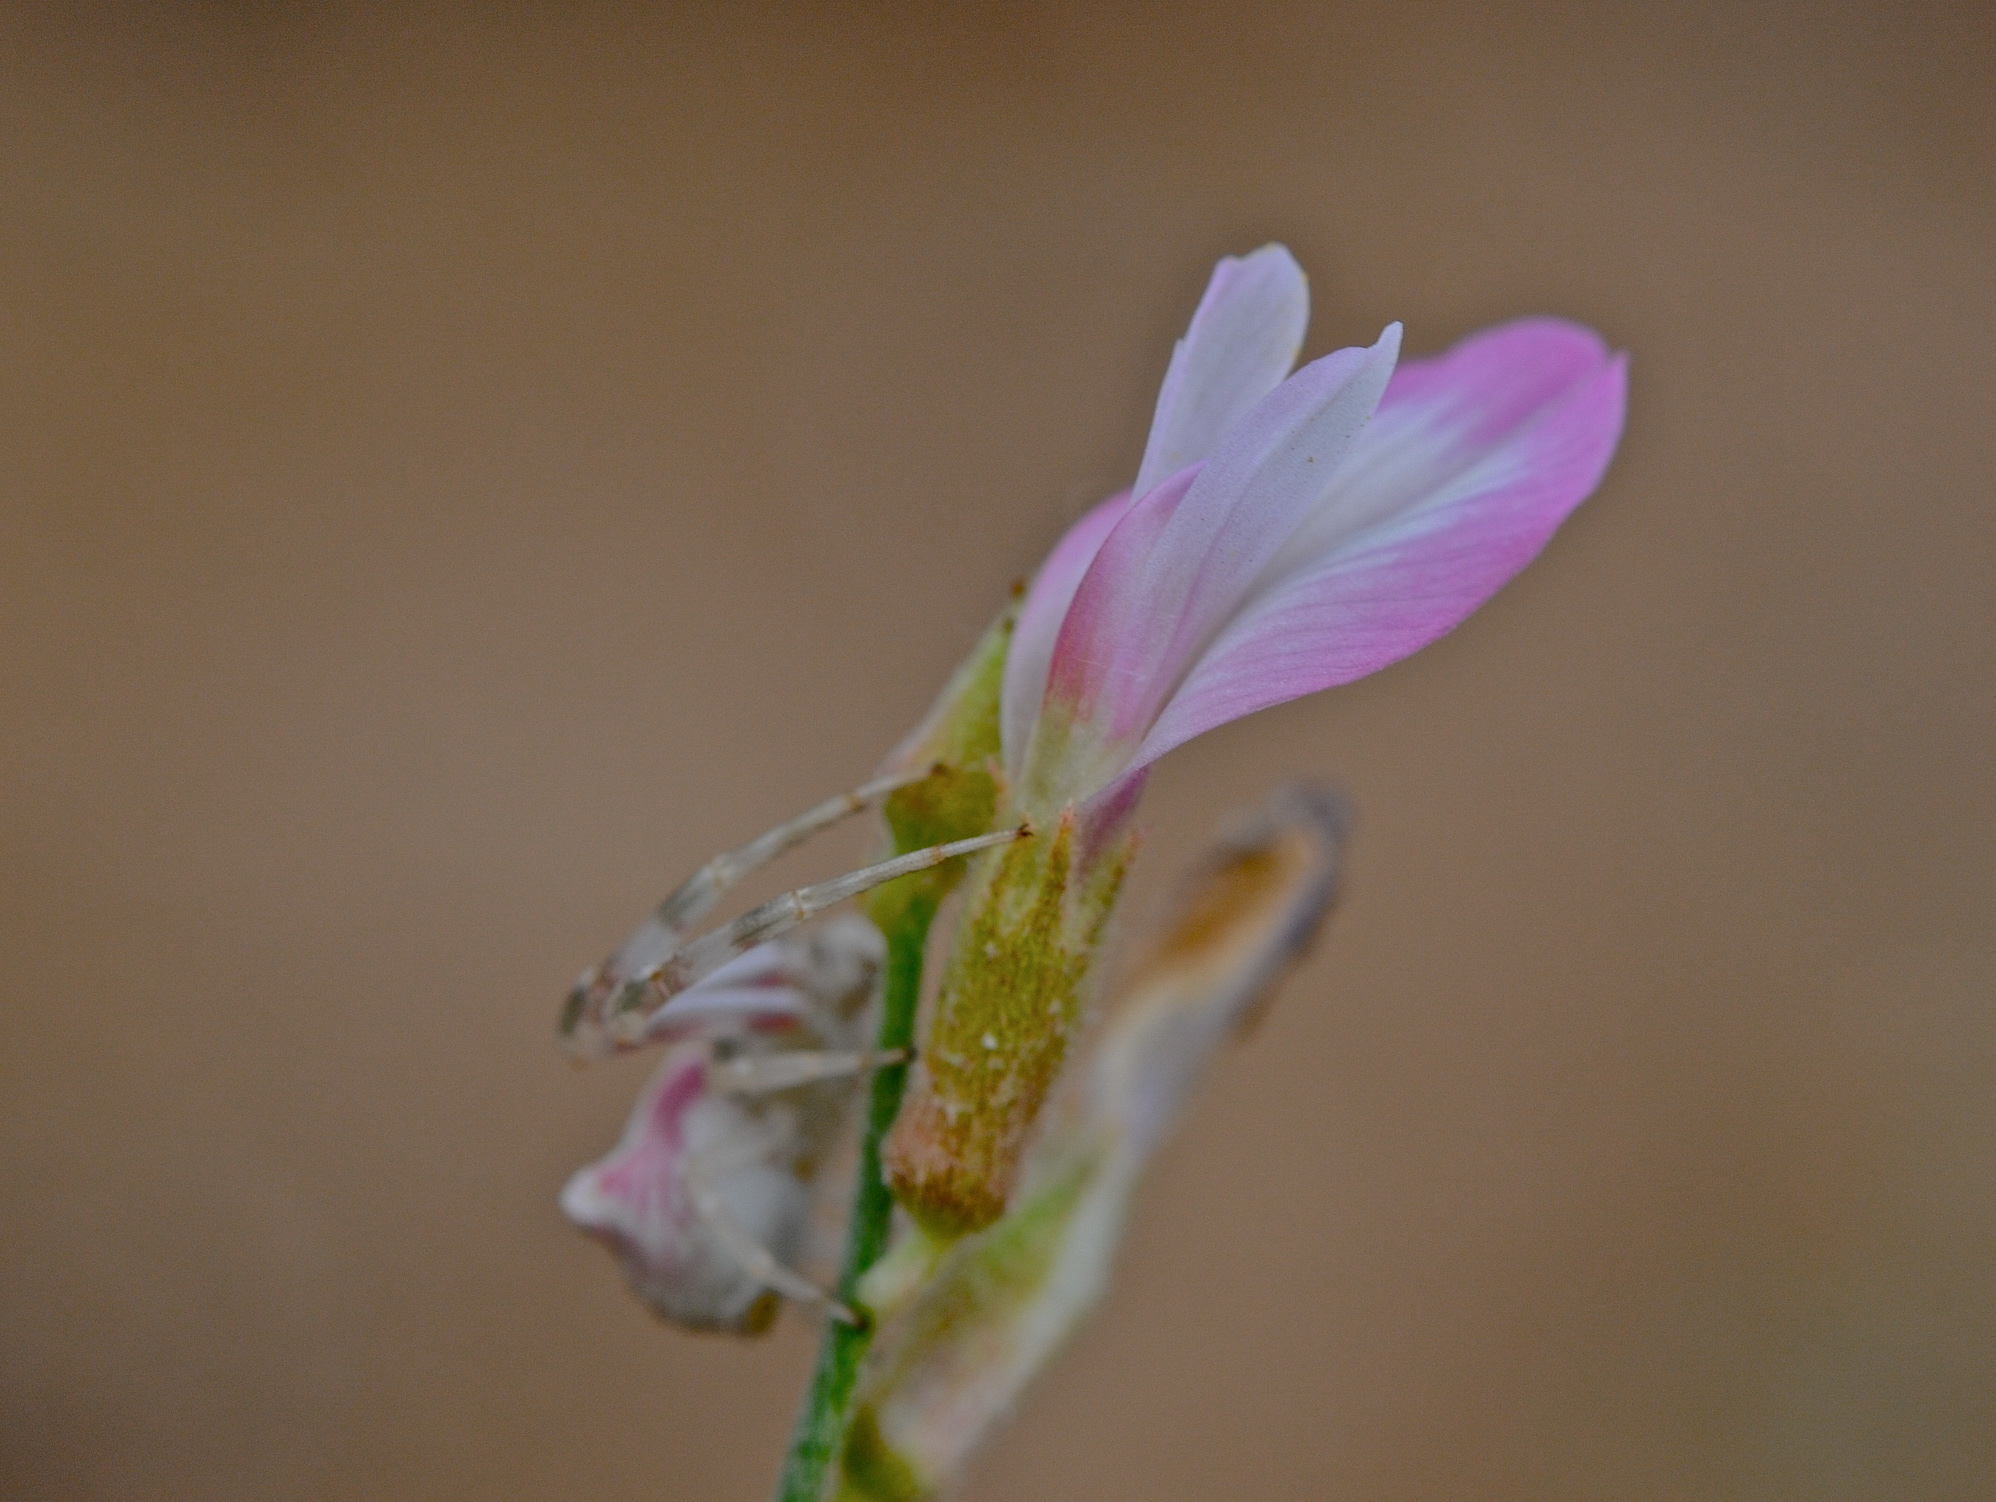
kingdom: Plantae
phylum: Tracheophyta
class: Magnoliopsida
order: Fabales
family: Fabaceae
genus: Astragalus
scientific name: Astragalus igniarius
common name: Milk vetch
